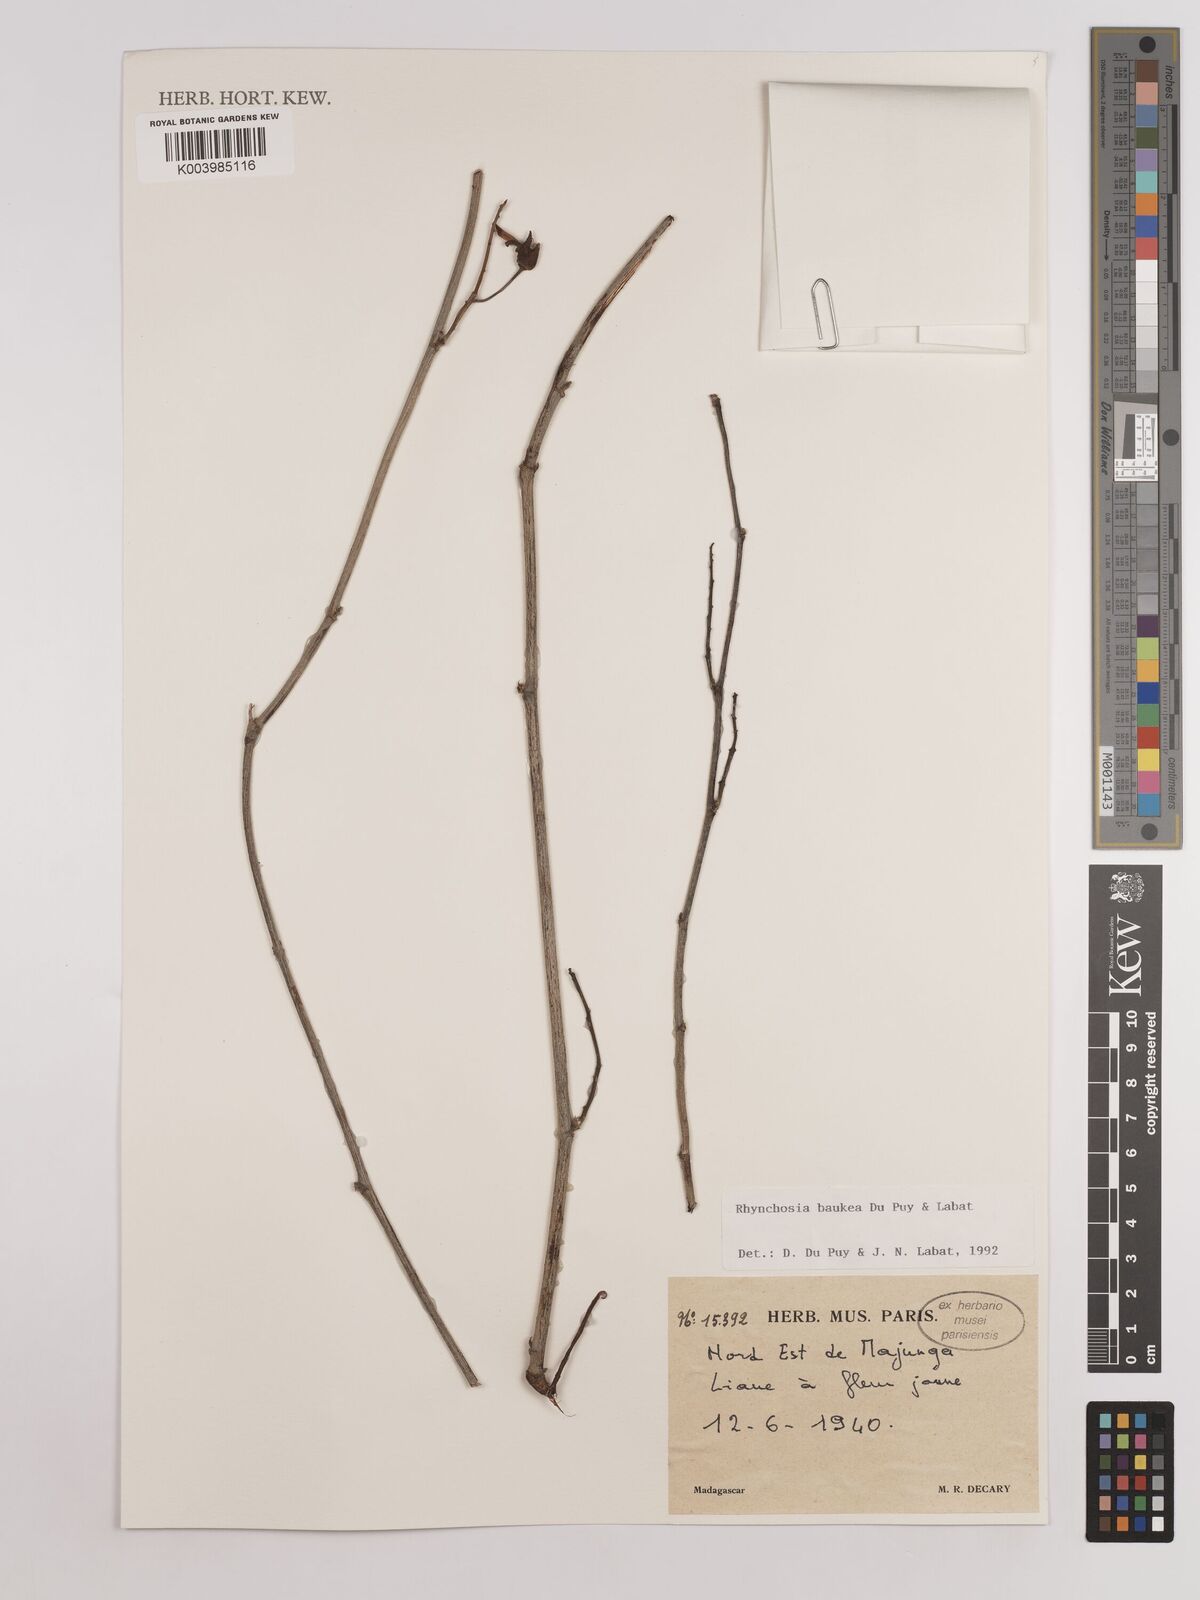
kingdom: Plantae
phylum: Tracheophyta
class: Magnoliopsida
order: Fabales
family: Fabaceae
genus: Rhynchosia
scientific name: Rhynchosia baukea
